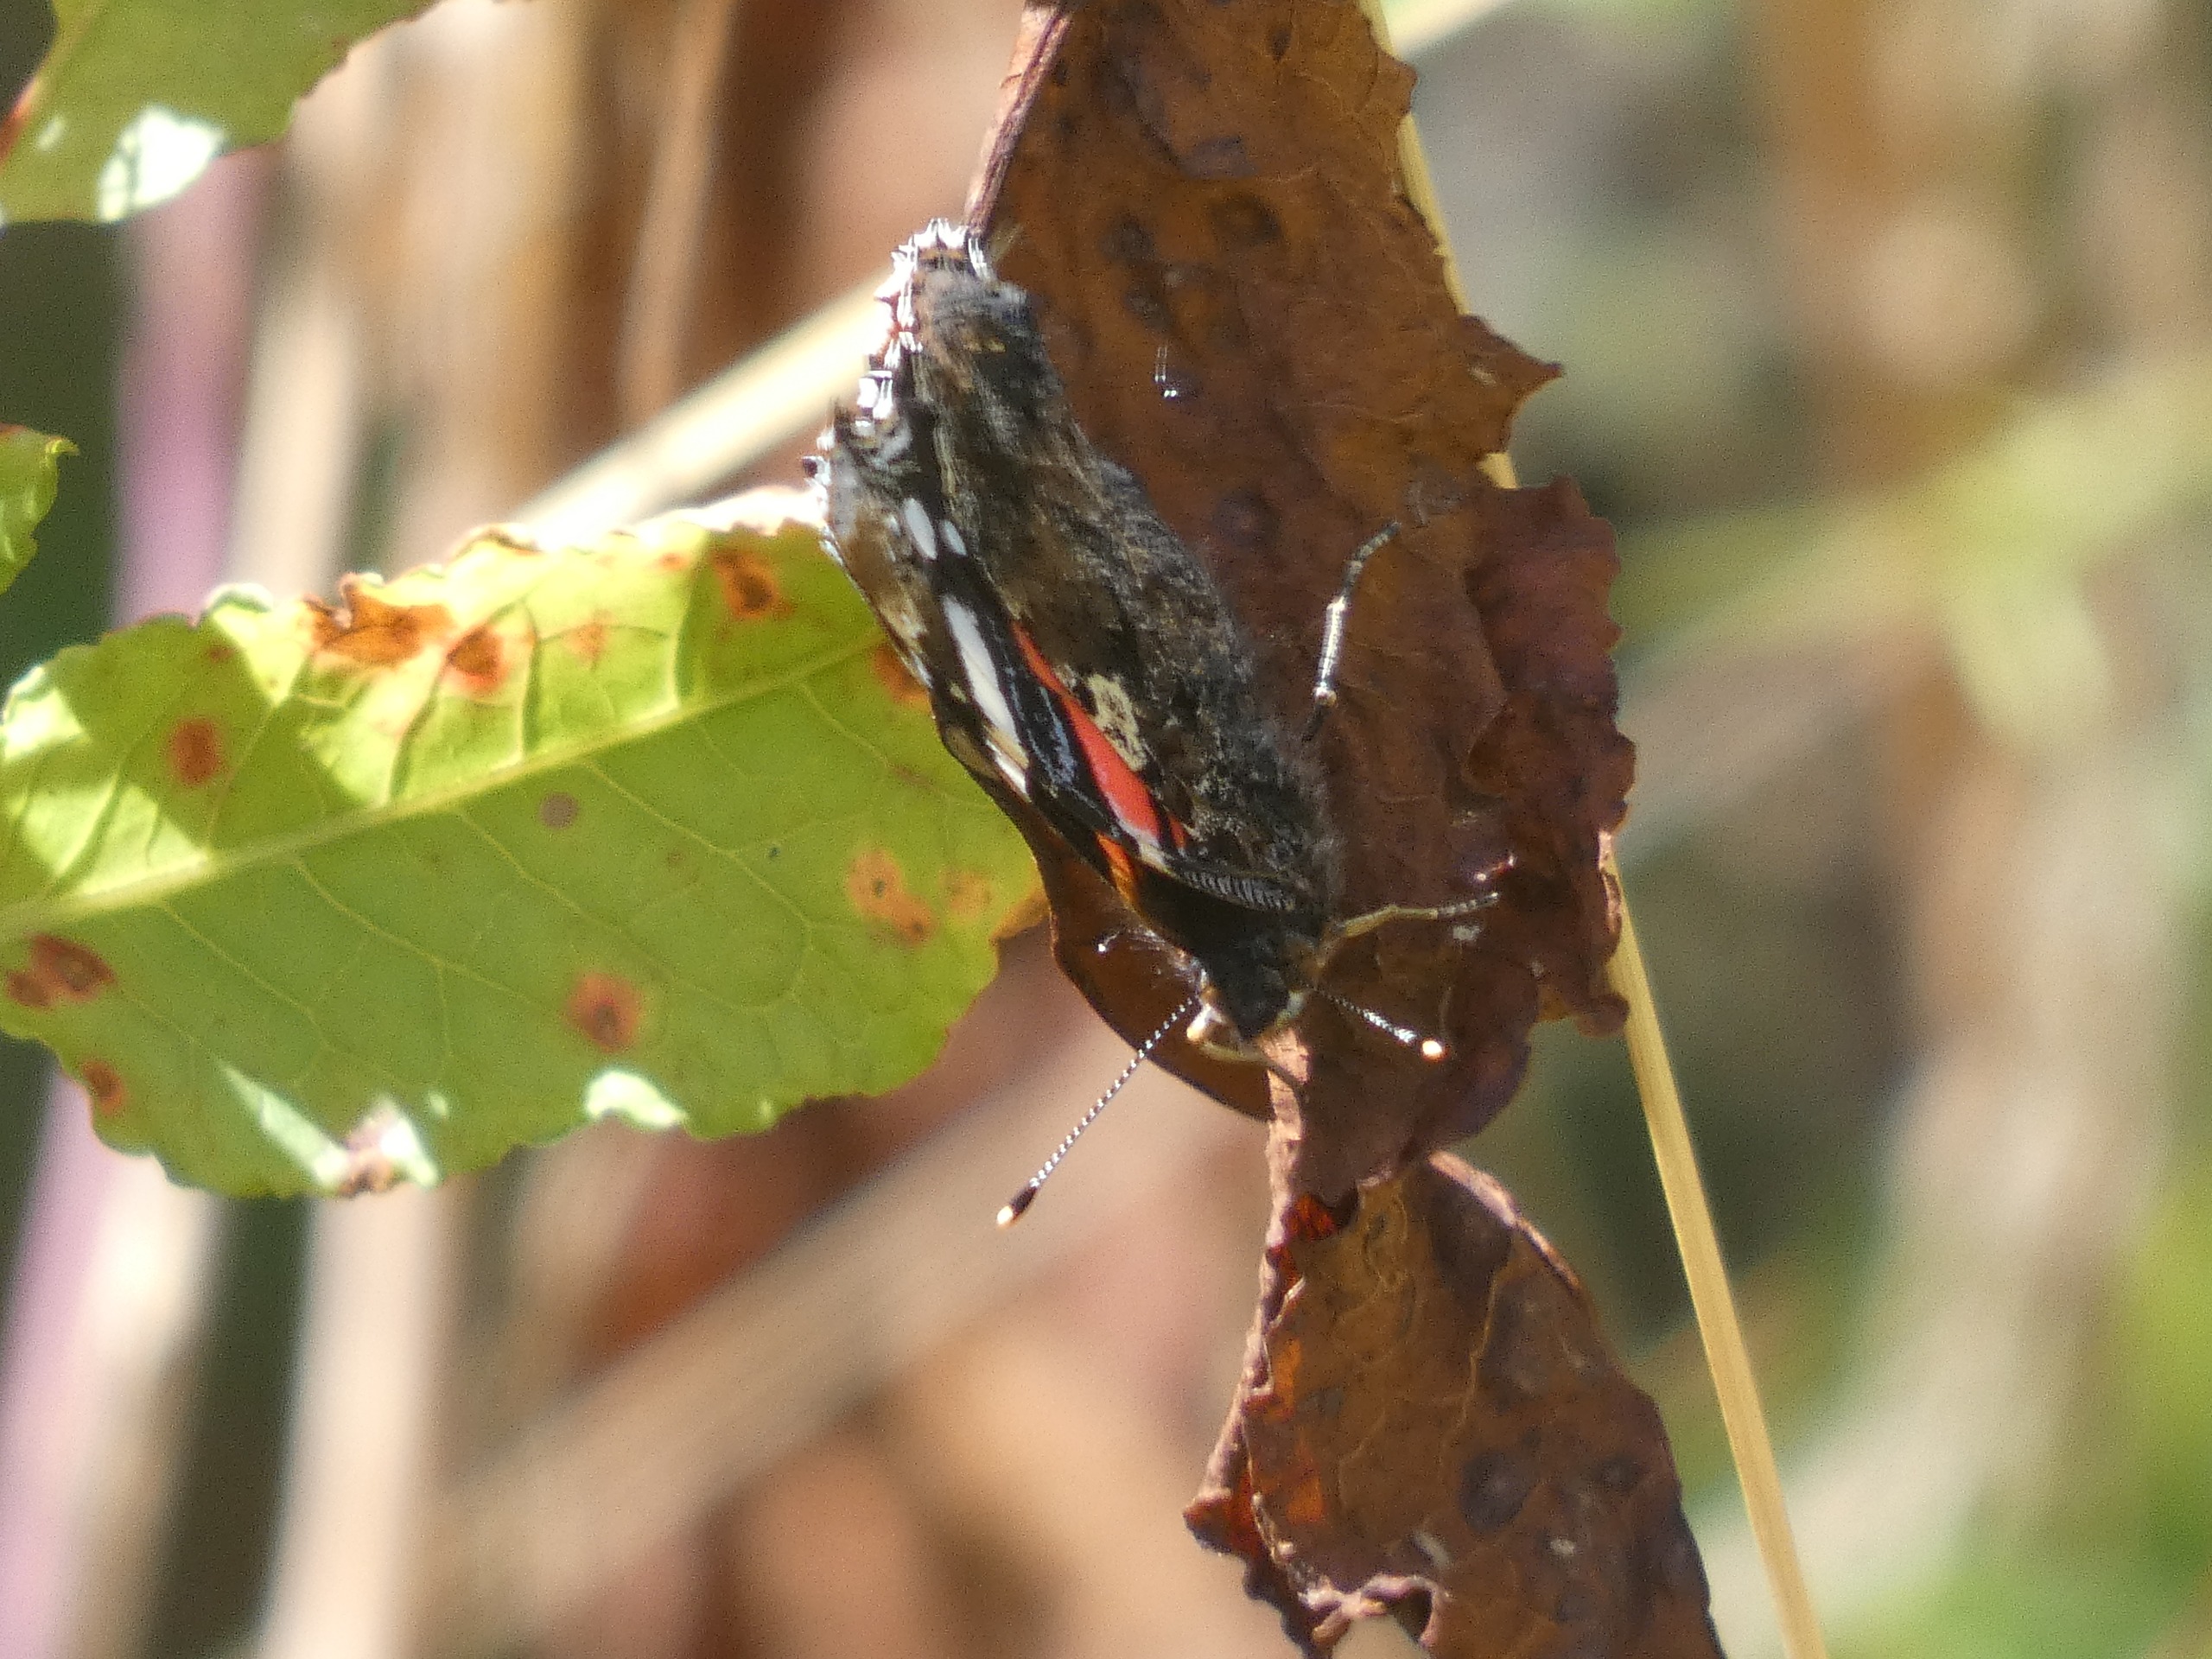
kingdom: Animalia
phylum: Arthropoda
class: Insecta
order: Lepidoptera
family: Nymphalidae
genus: Vanessa
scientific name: Vanessa atalanta
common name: Admiral
